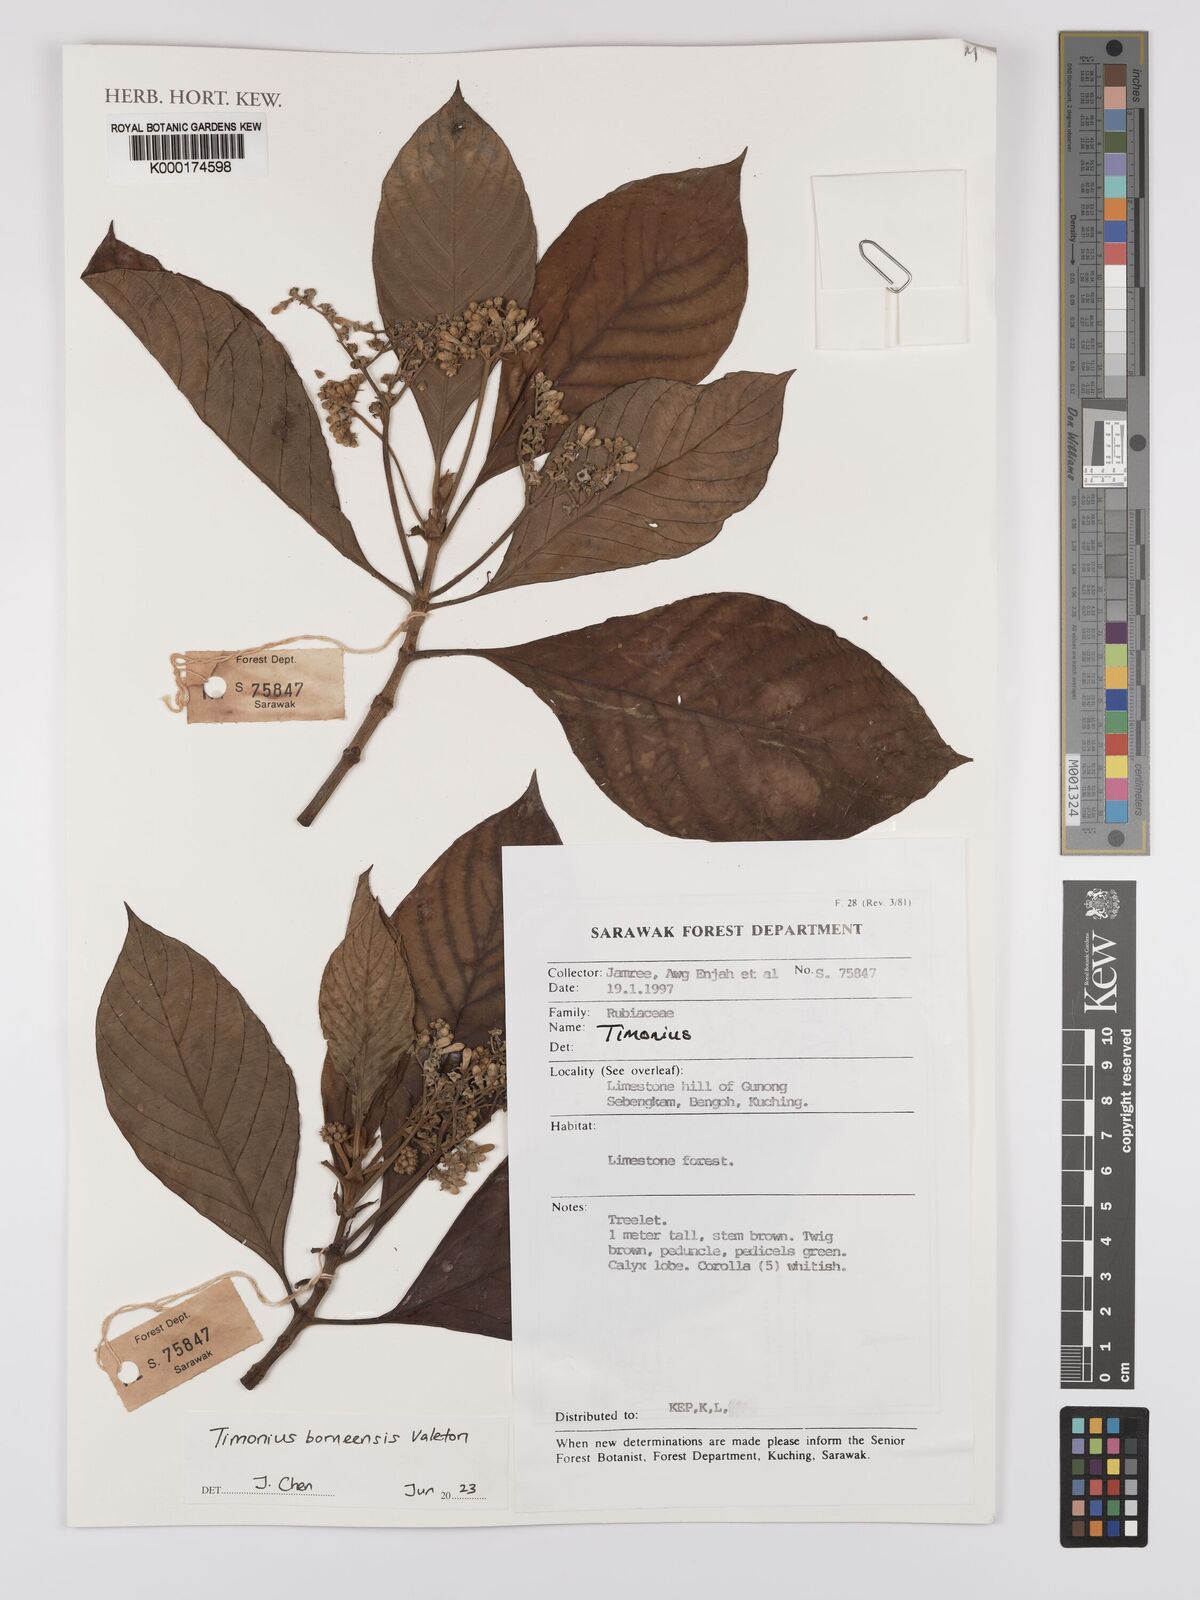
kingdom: Plantae
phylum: Tracheophyta
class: Magnoliopsida
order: Gentianales
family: Rubiaceae
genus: Timonius
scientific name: Timonius
